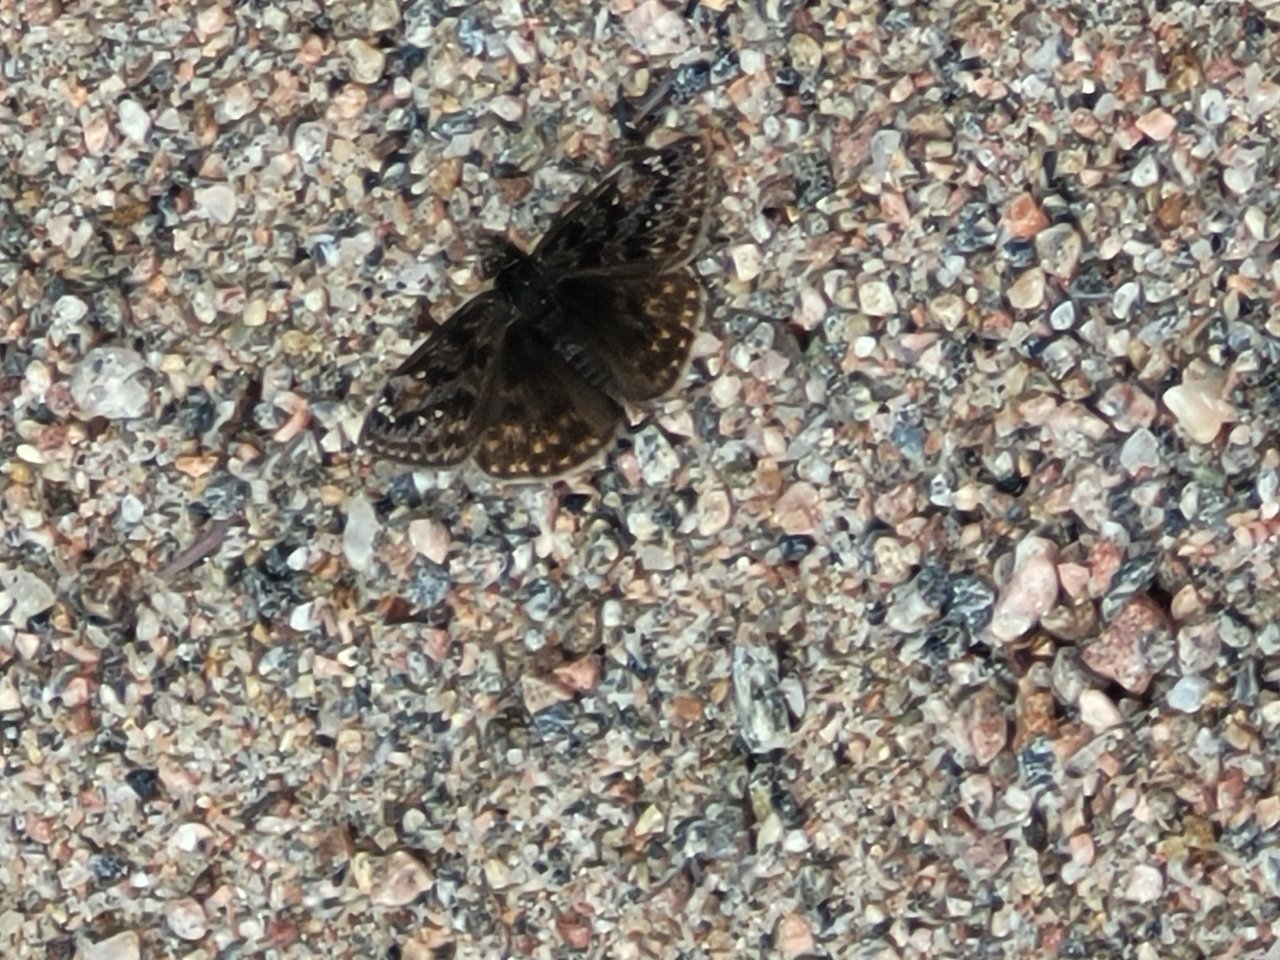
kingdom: Animalia
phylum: Arthropoda
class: Insecta
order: Lepidoptera
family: Hesperiidae
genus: Gesta
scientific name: Gesta
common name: Juvenal's Duskywing
